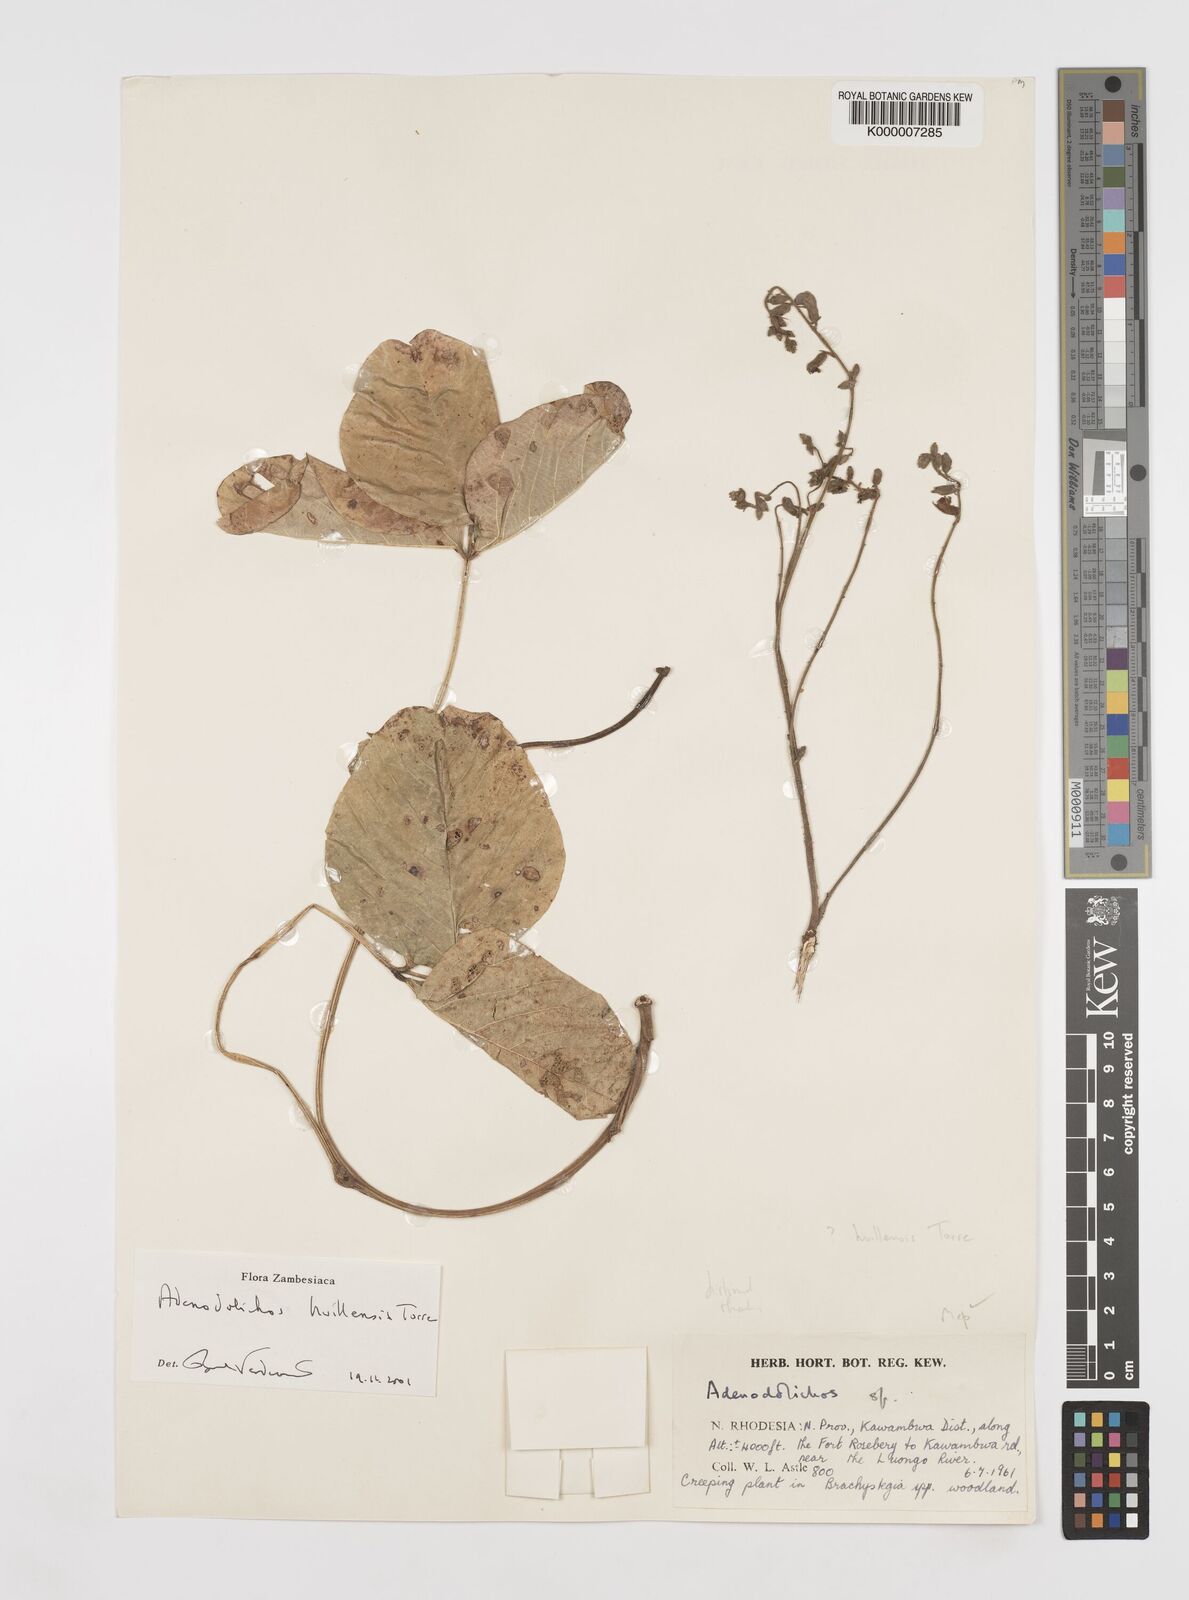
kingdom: Plantae
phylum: Tracheophyta
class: Magnoliopsida
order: Fabales
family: Fabaceae
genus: Adenodolichos
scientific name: Adenodolichos huillensis
